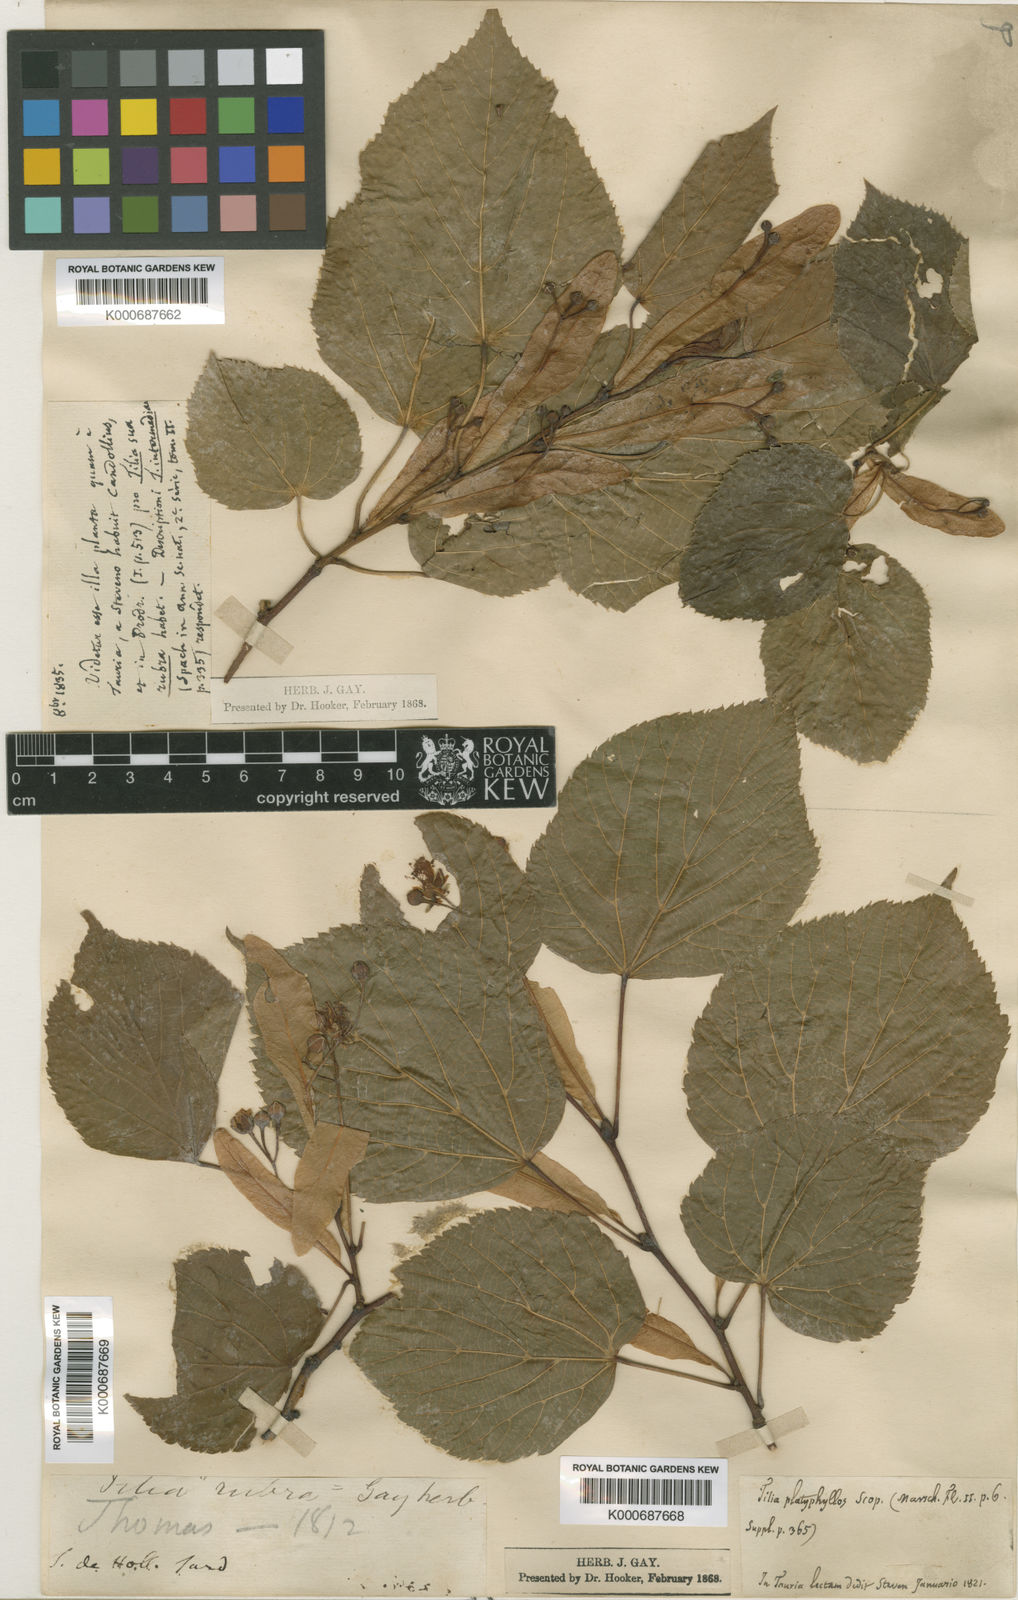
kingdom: Plantae
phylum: Tracheophyta
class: Magnoliopsida
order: Malvales
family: Malvaceae
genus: Tilia
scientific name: Tilia
